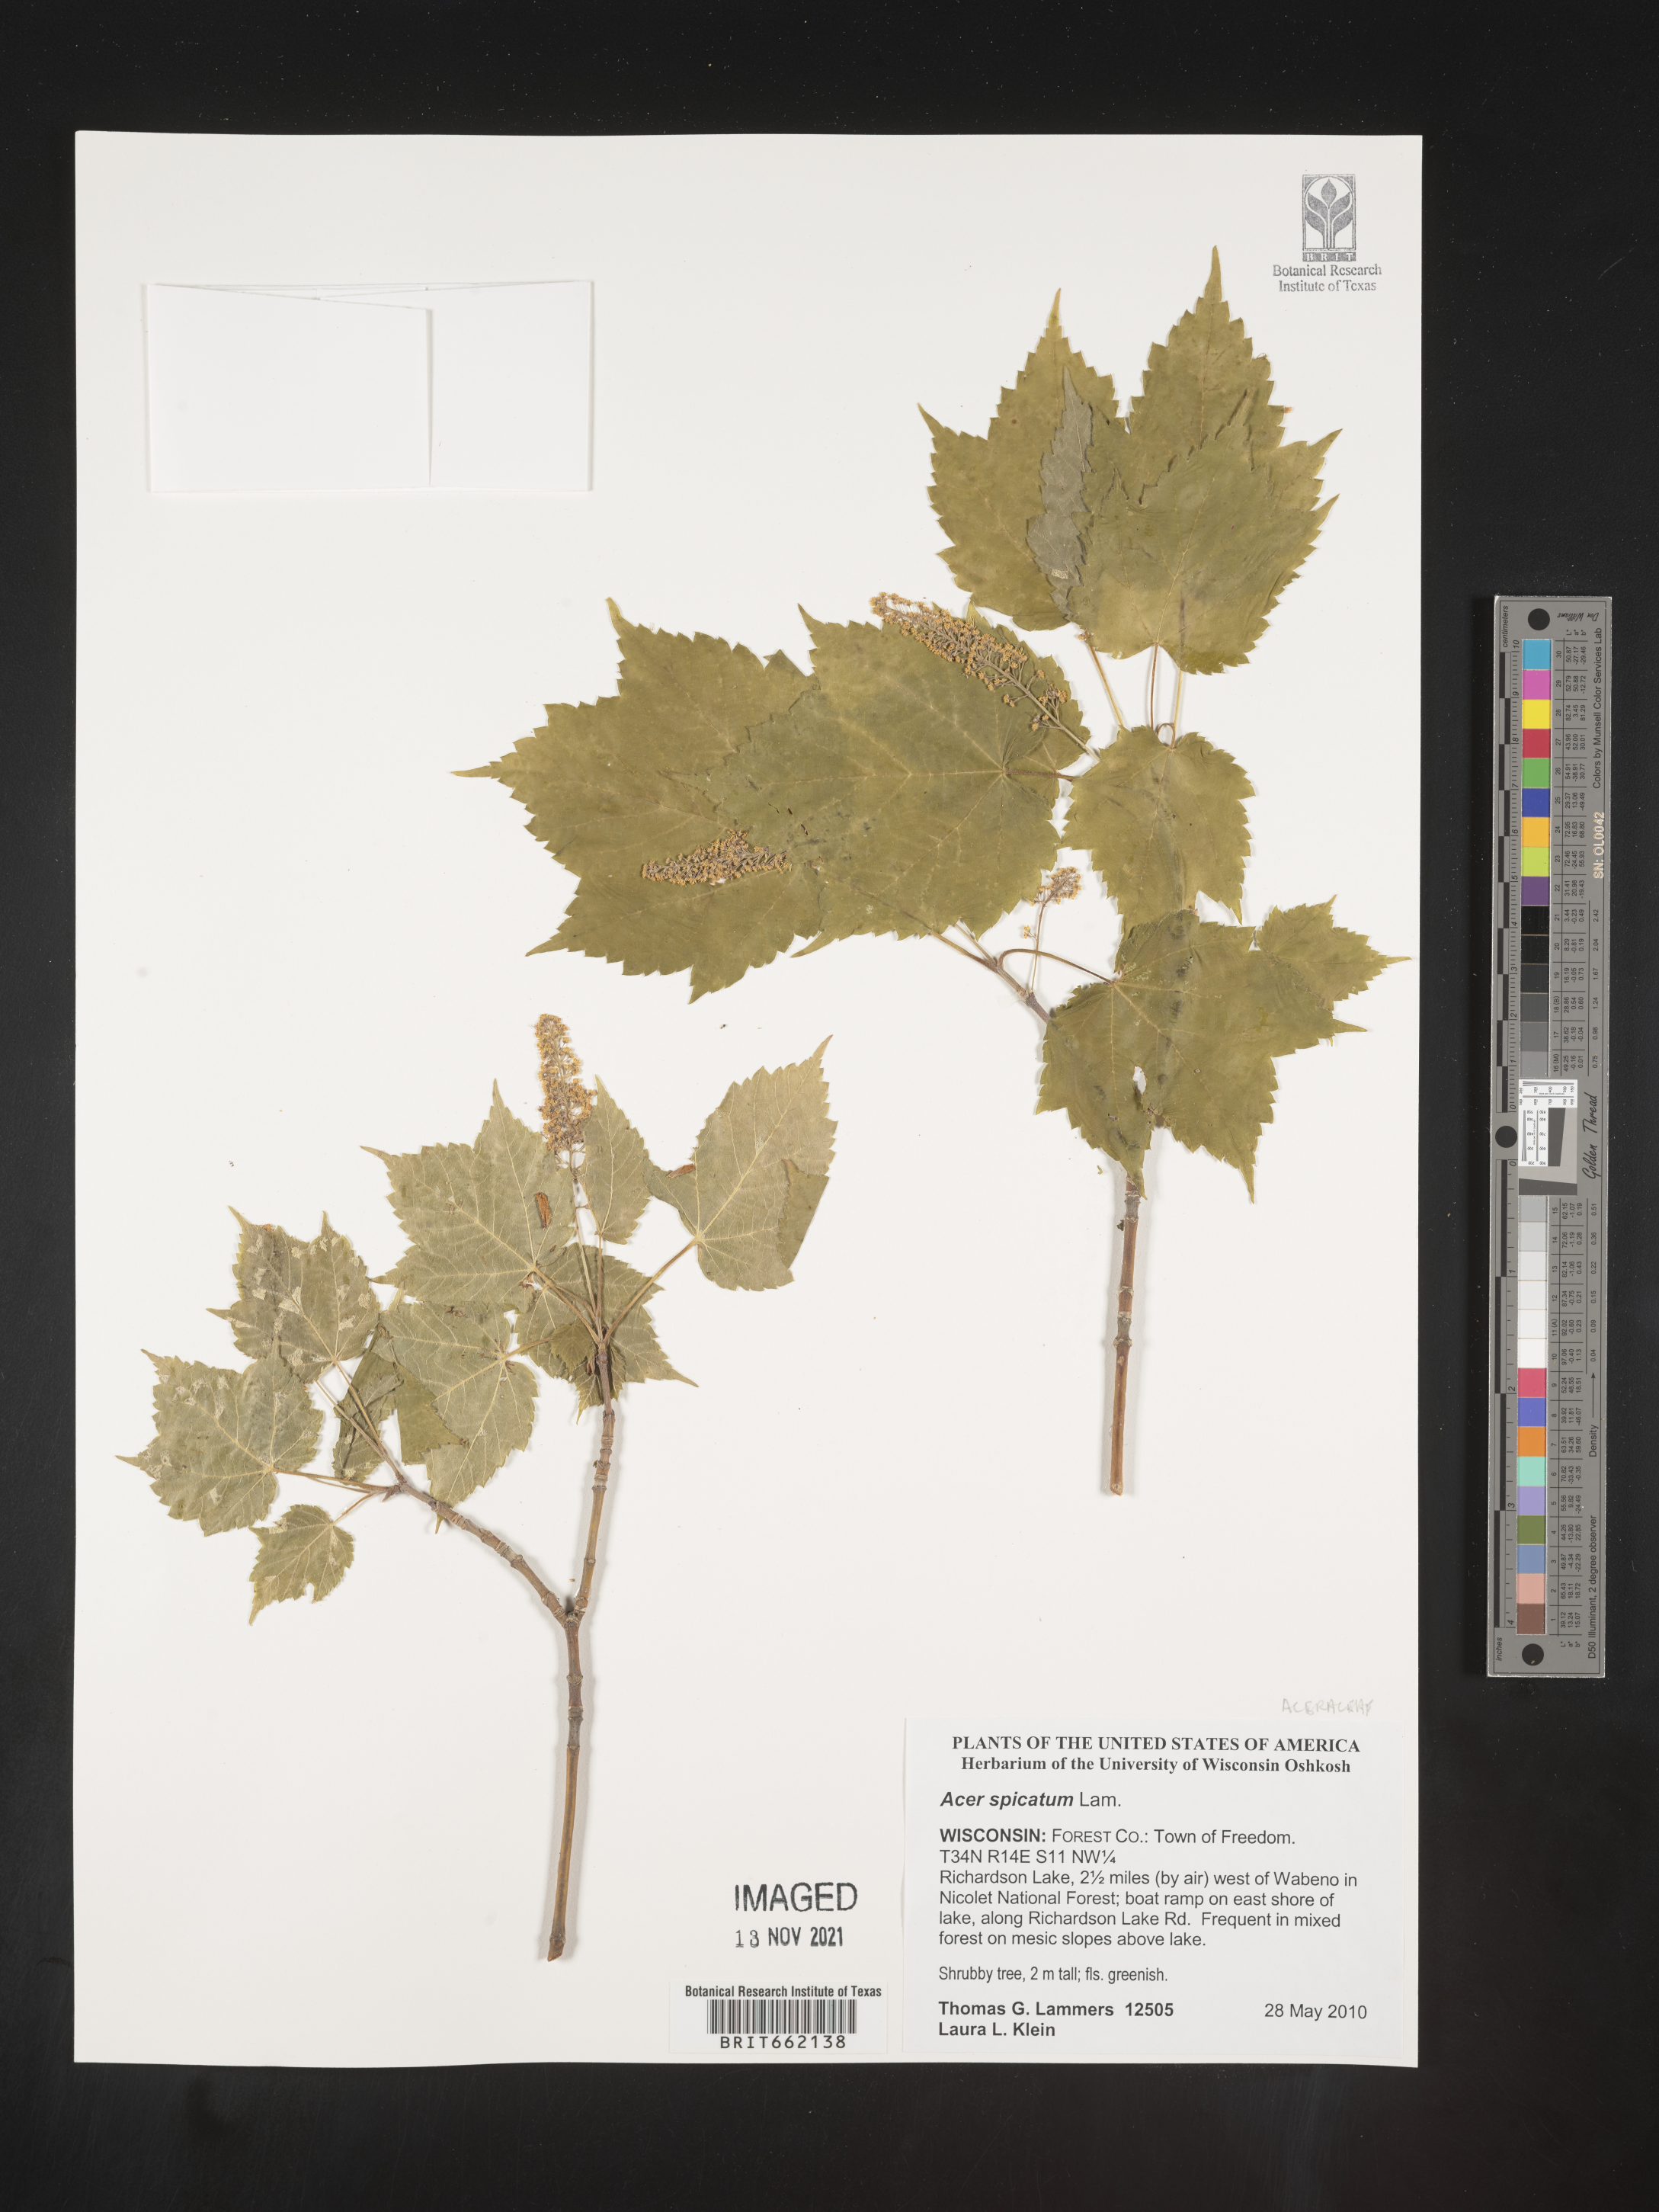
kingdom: Plantae
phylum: Tracheophyta
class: Magnoliopsida
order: Sapindales
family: Sapindaceae
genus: Acer
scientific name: Acer spicatum
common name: Mountain maple
